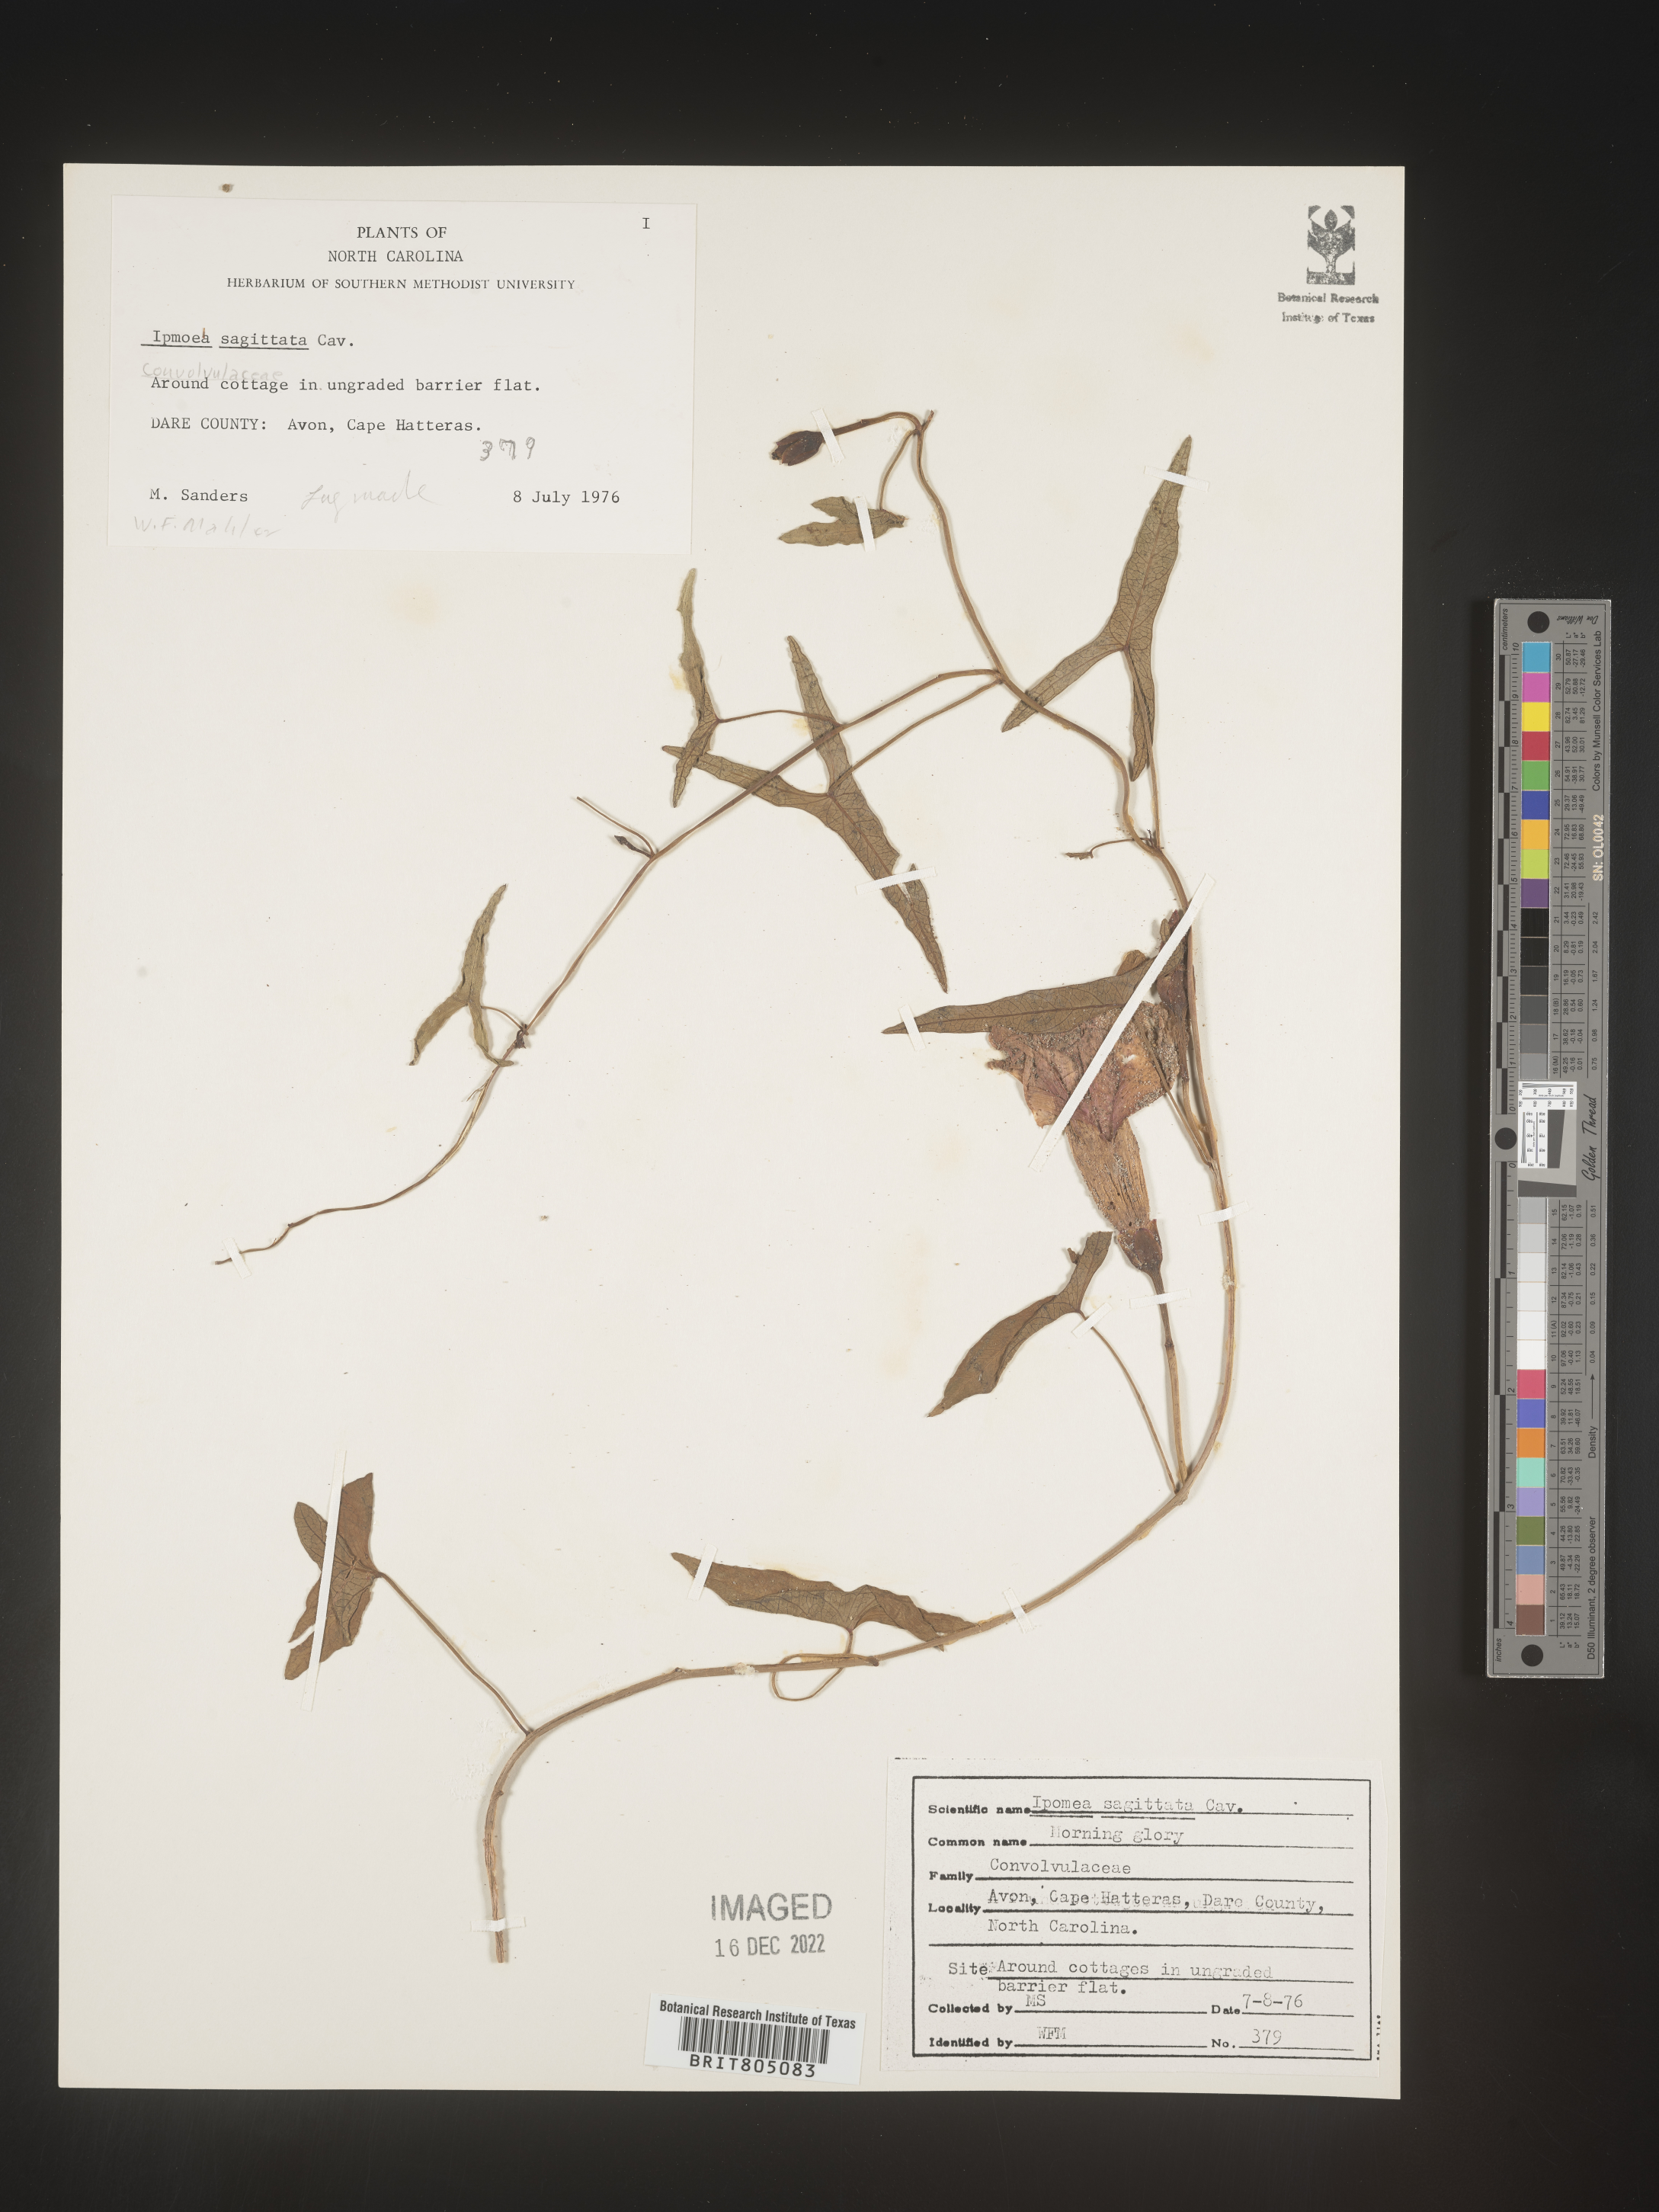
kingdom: Plantae
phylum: Tracheophyta
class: Magnoliopsida
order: Solanales
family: Convolvulaceae
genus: Ipomoea
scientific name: Ipomoea sinensis
